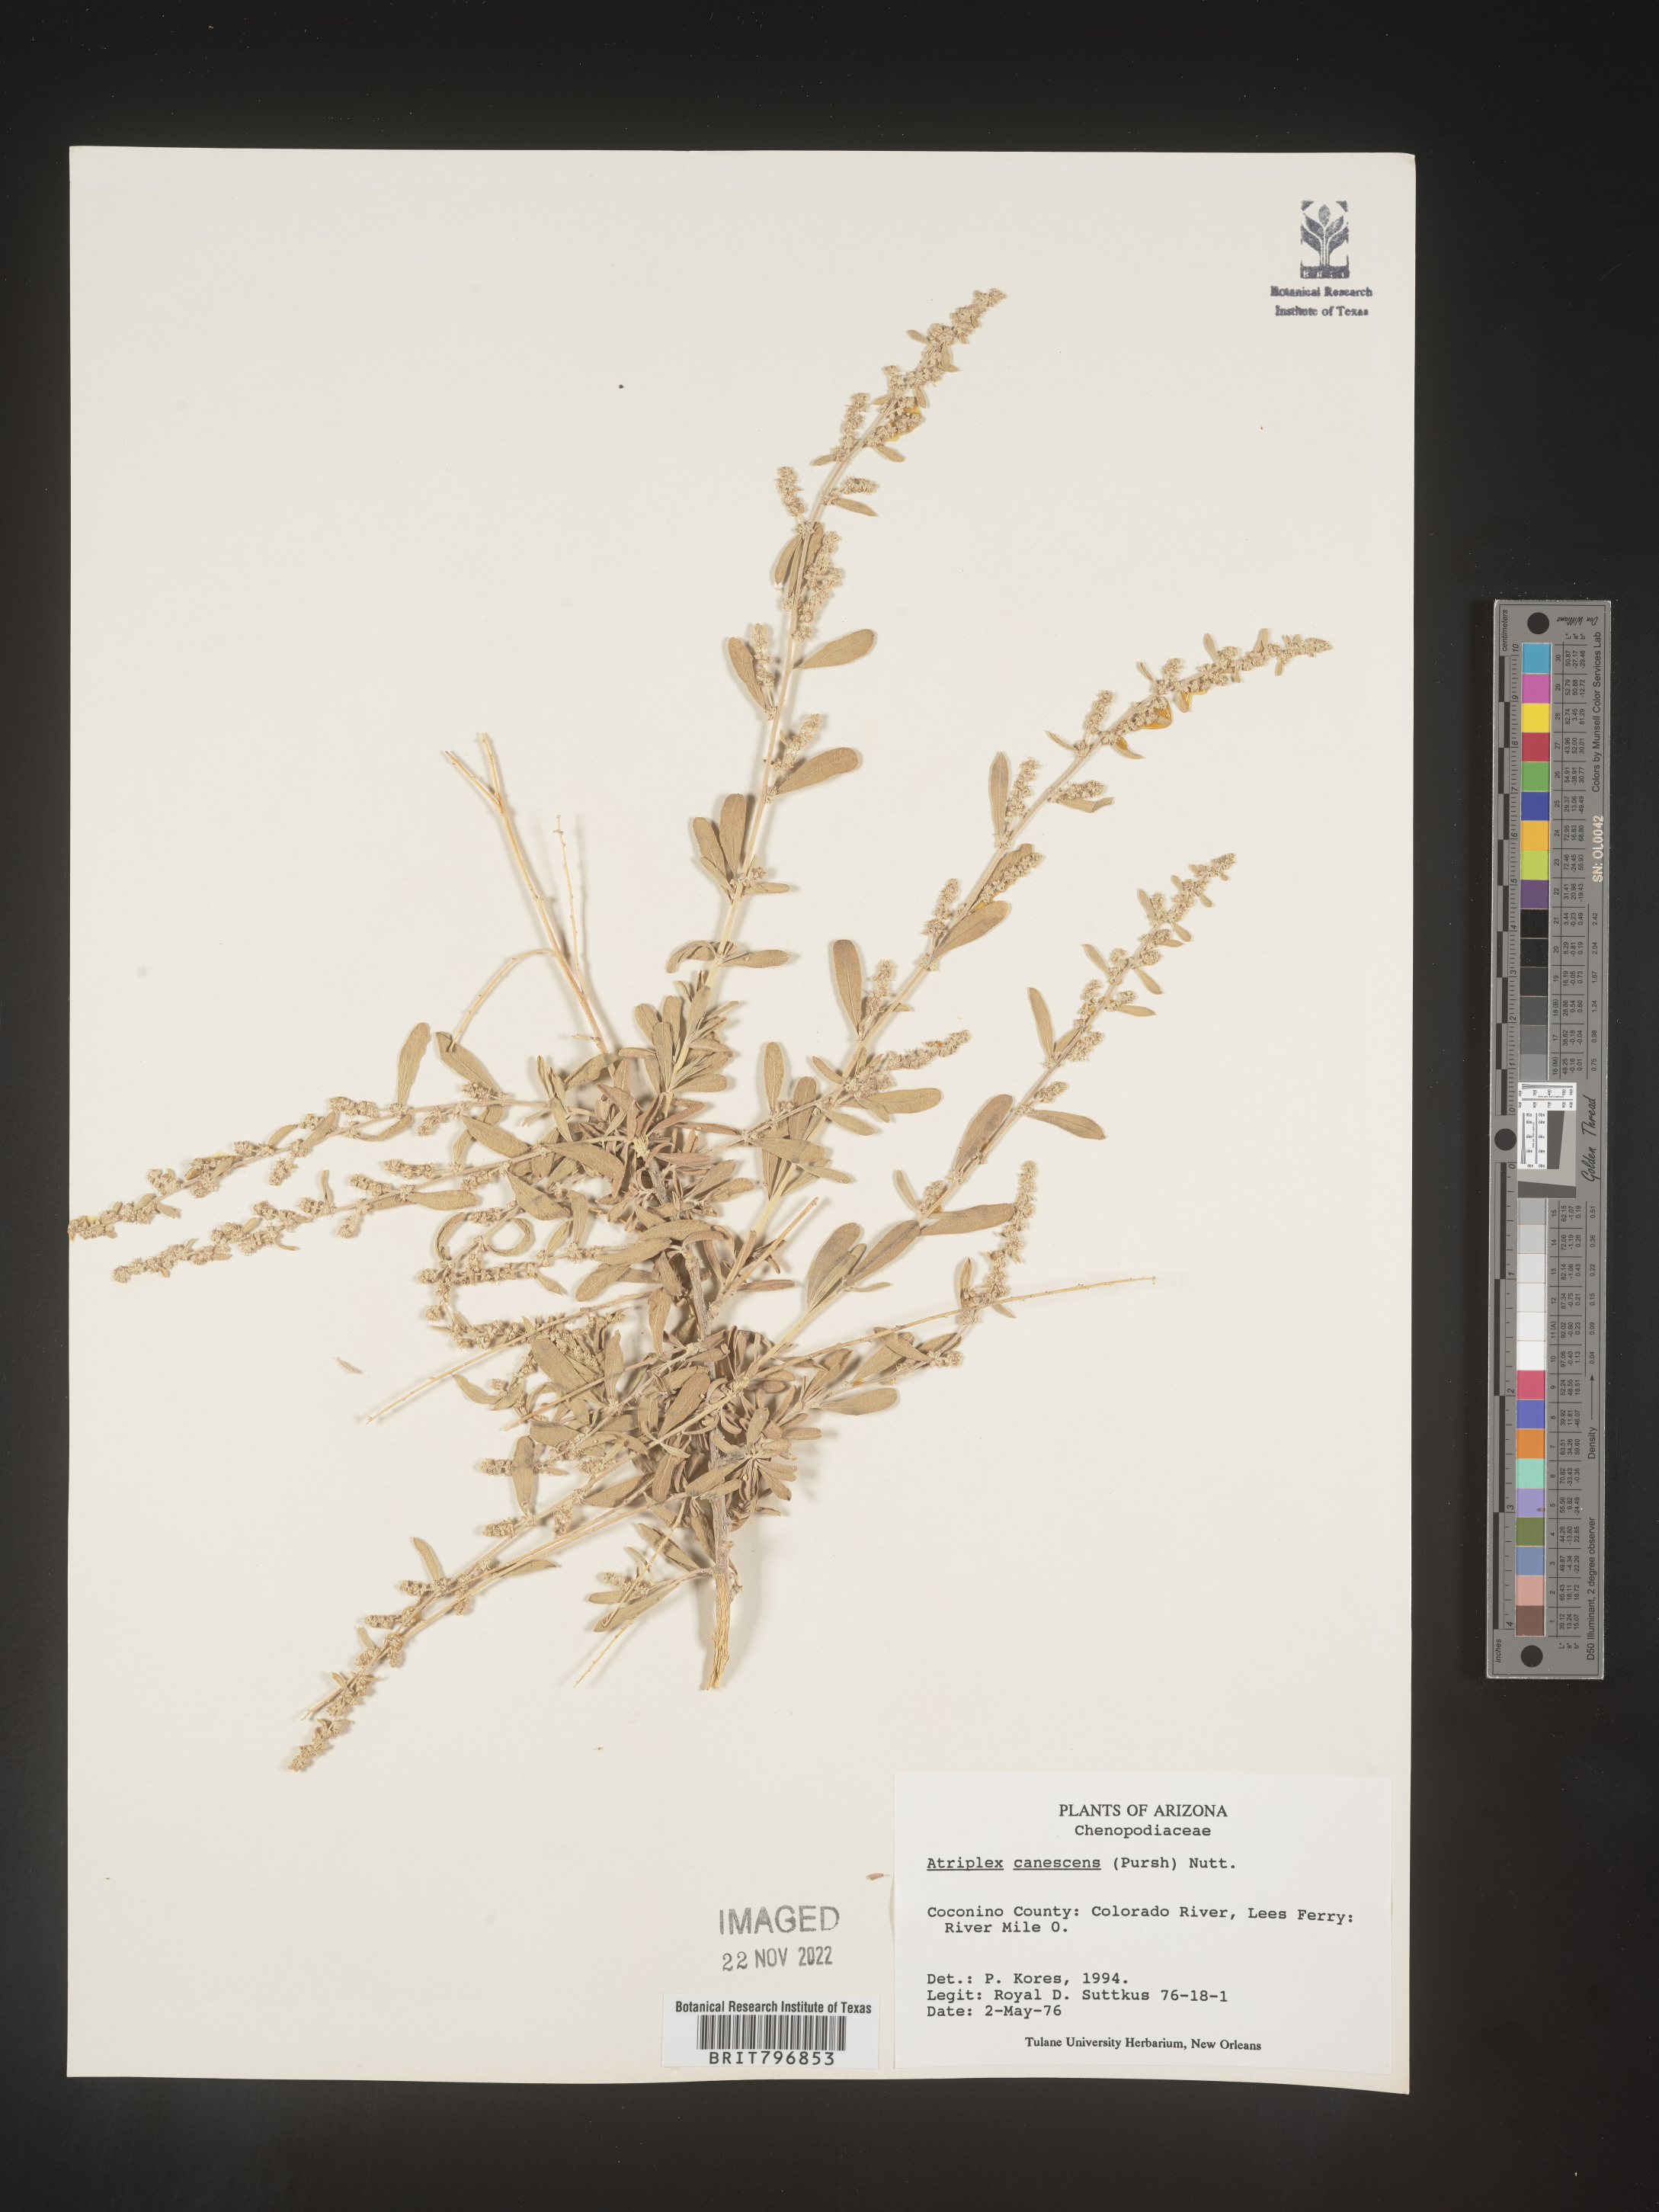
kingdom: Plantae
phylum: Tracheophyta
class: Magnoliopsida
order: Caryophyllales
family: Amaranthaceae
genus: Atriplex
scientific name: Atriplex canescens
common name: Four-wing saltbush
